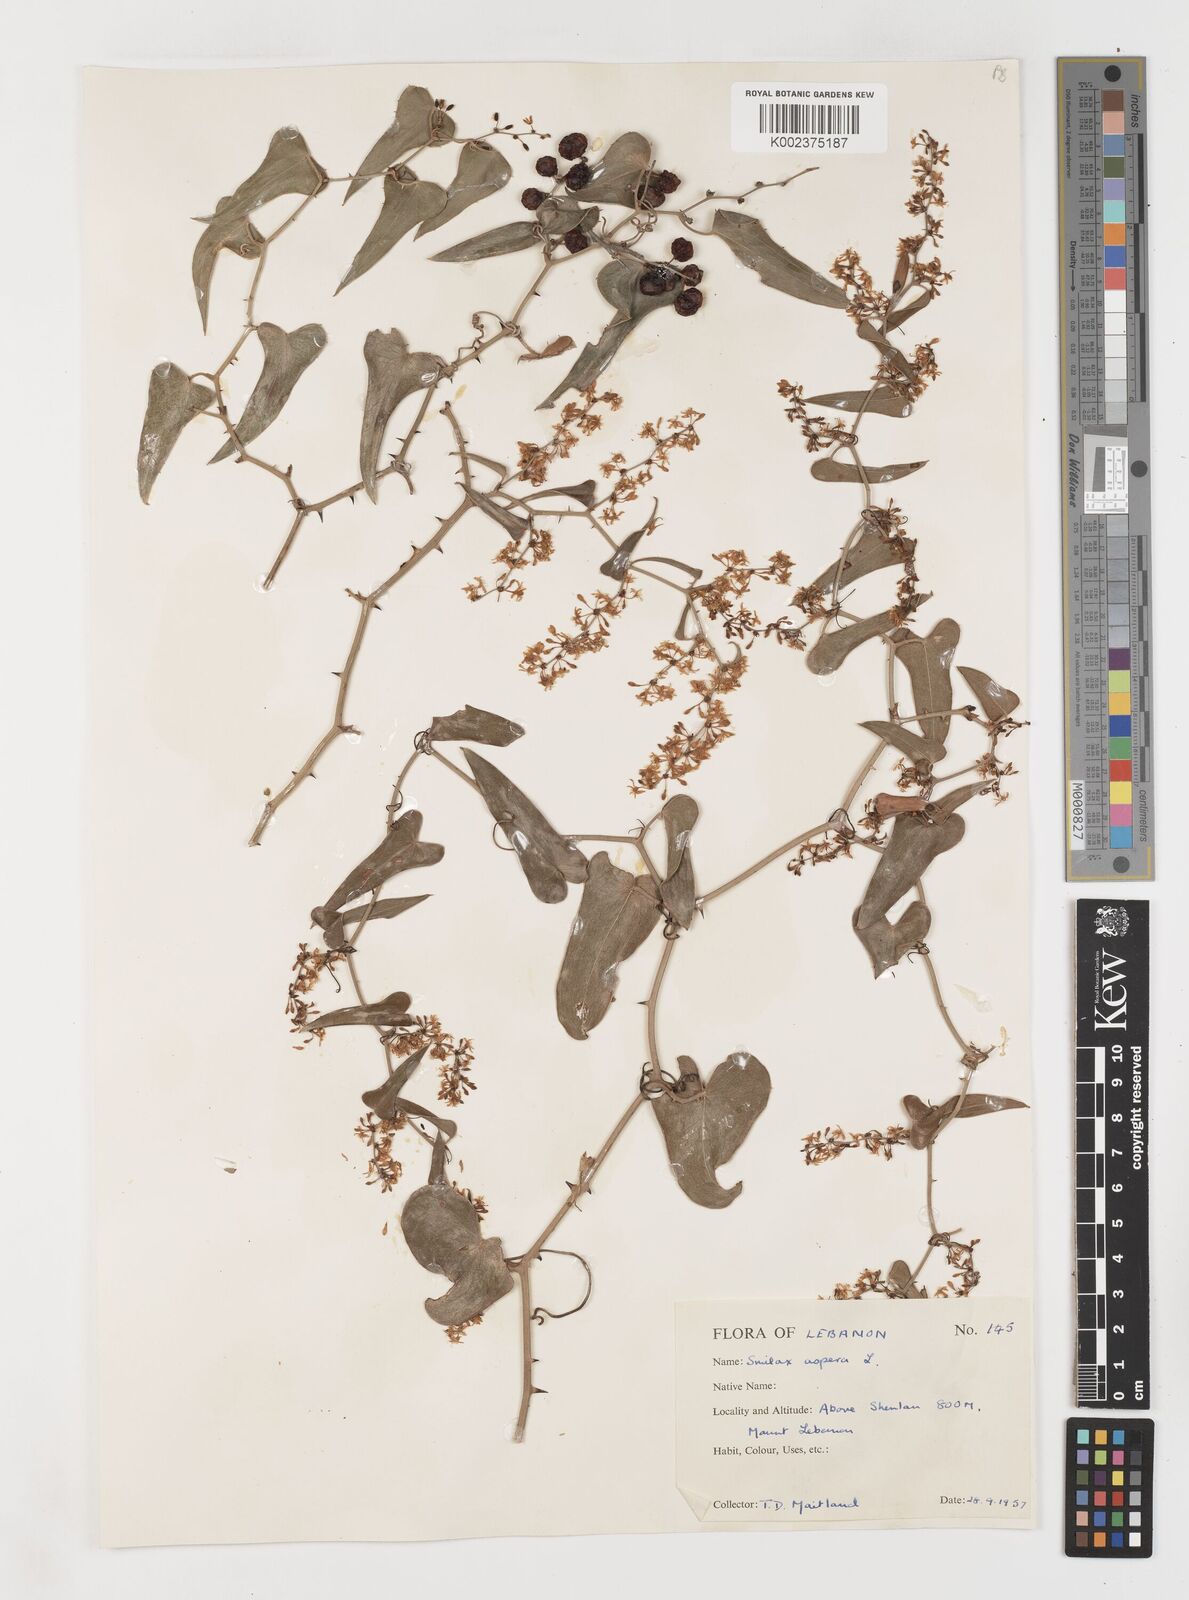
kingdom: Plantae
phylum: Tracheophyta
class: Liliopsida
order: Liliales
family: Smilacaceae
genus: Smilax
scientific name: Smilax aspera
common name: Common smilax
